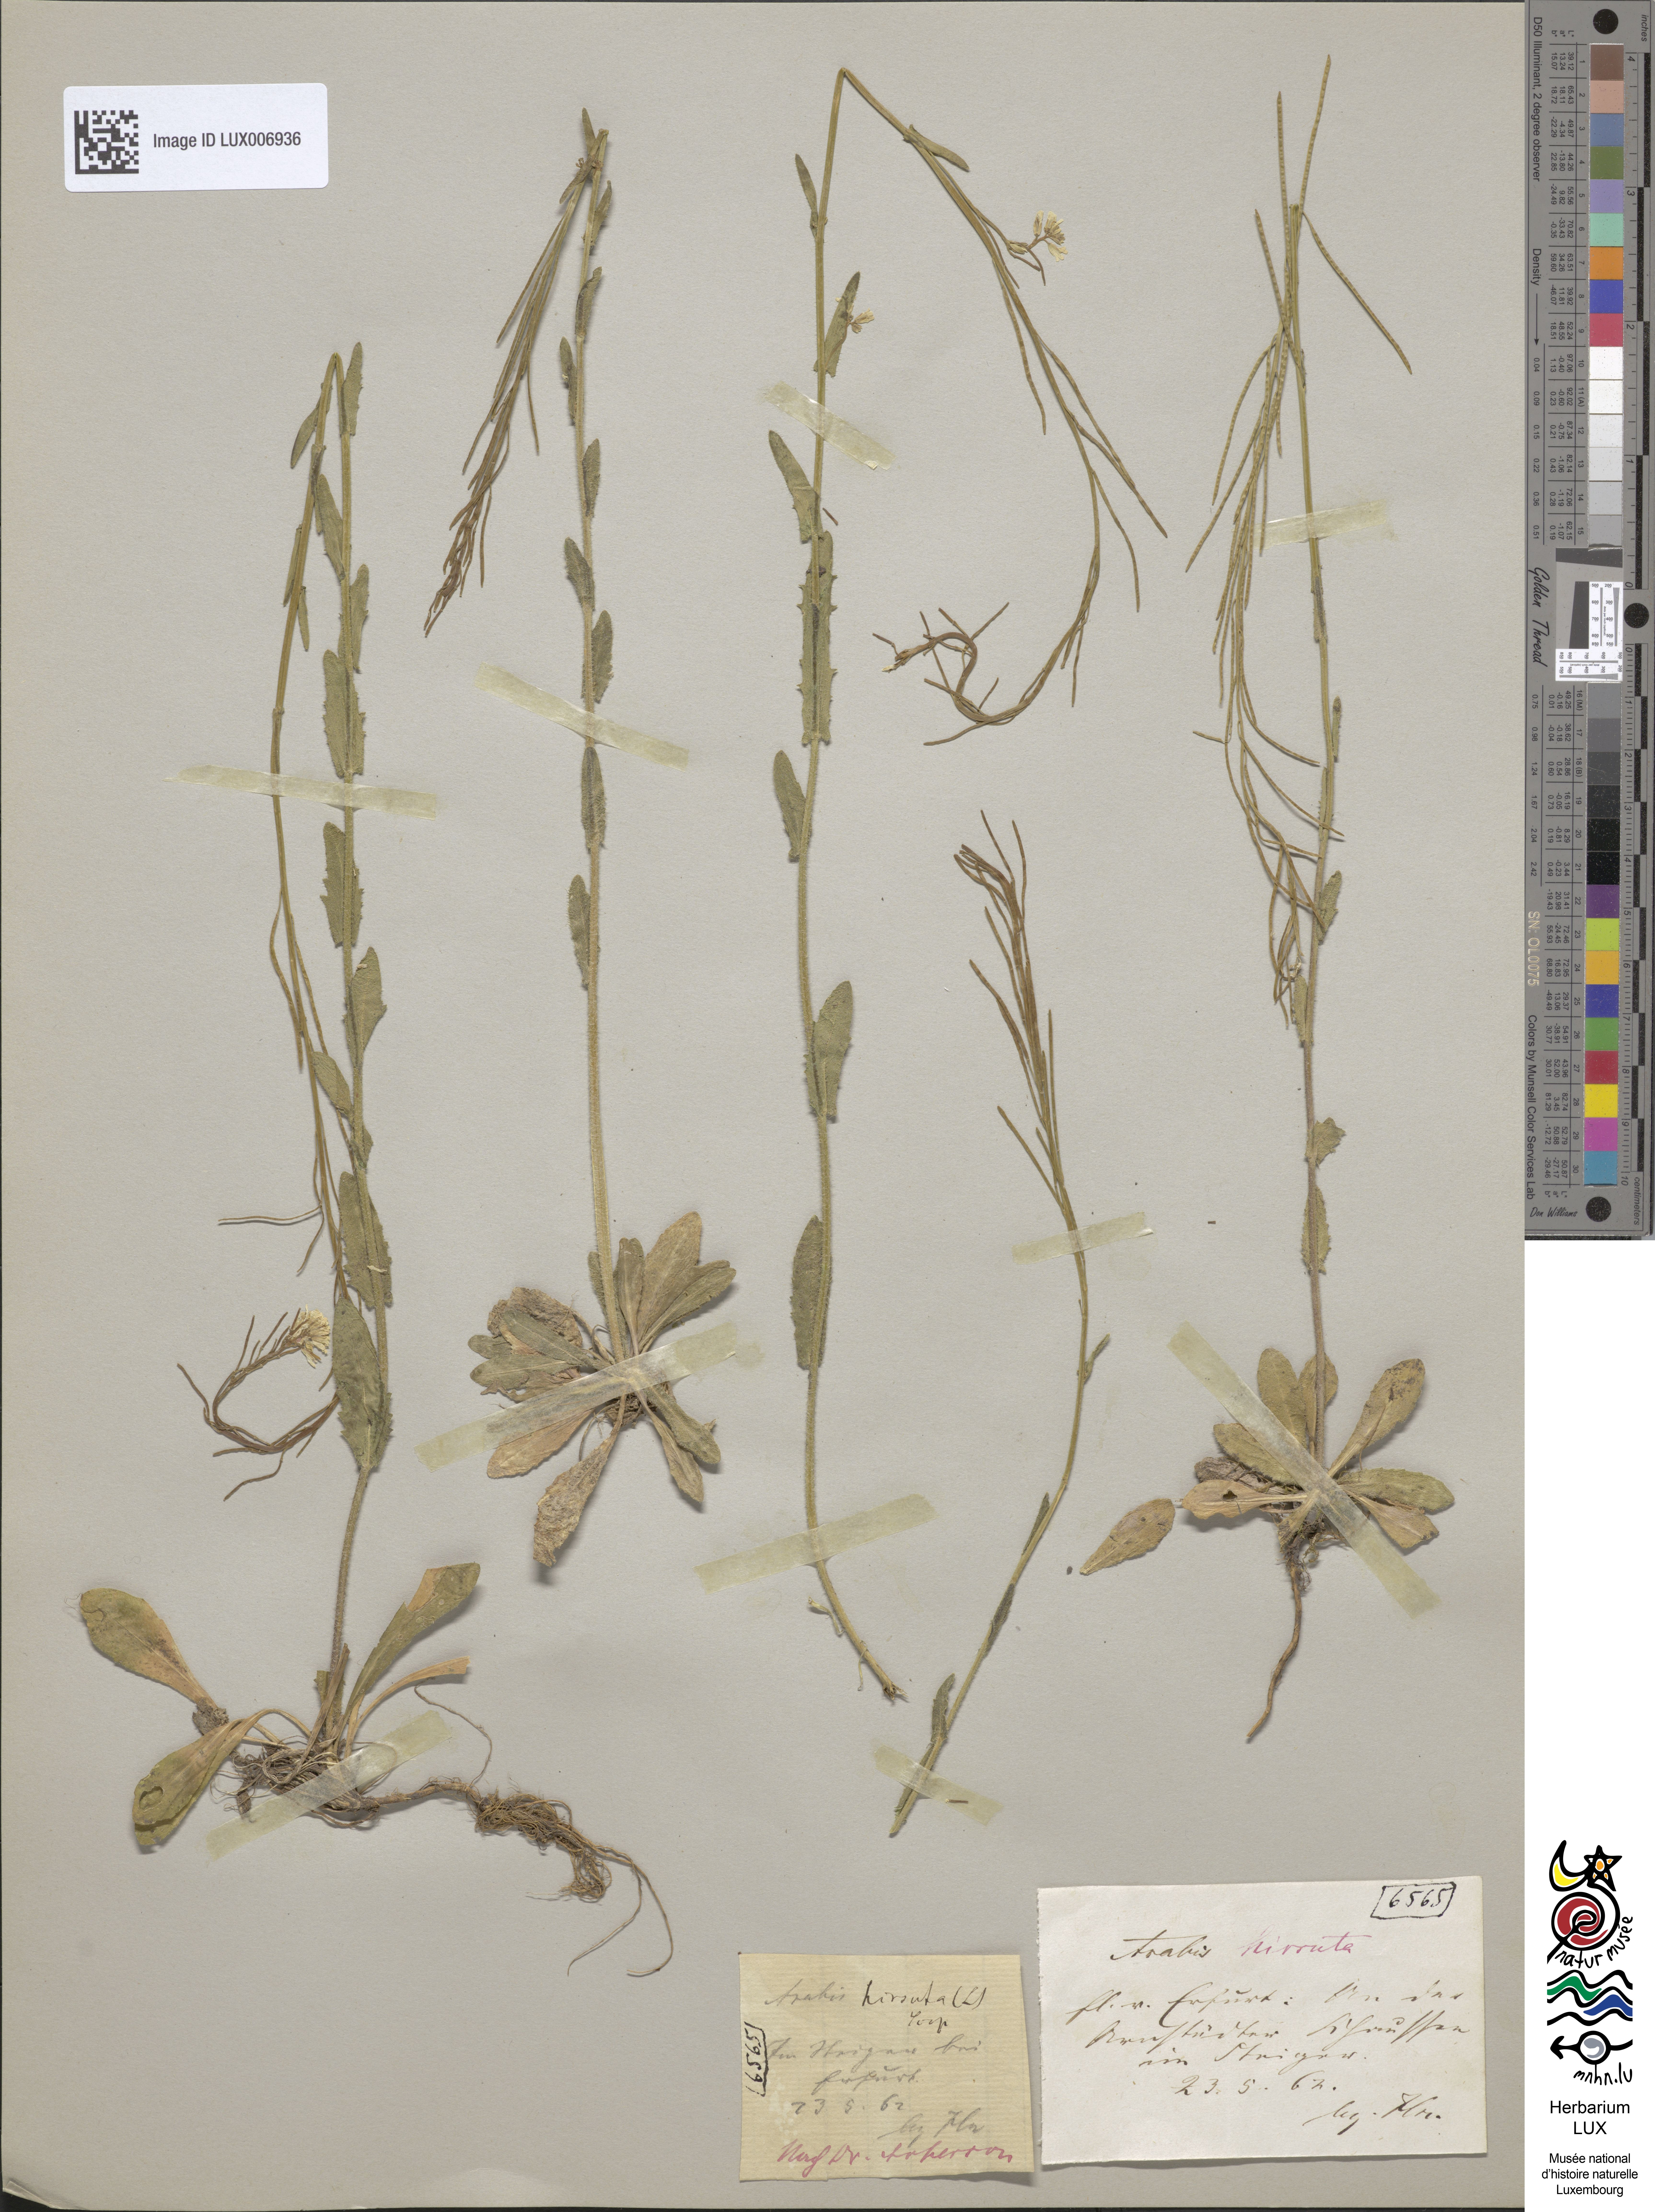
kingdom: Plantae
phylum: Tracheophyta
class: Magnoliopsida
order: Brassicales
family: Brassicaceae
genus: Arabis
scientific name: Arabis hirsuta
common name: Hairy rock-cress
